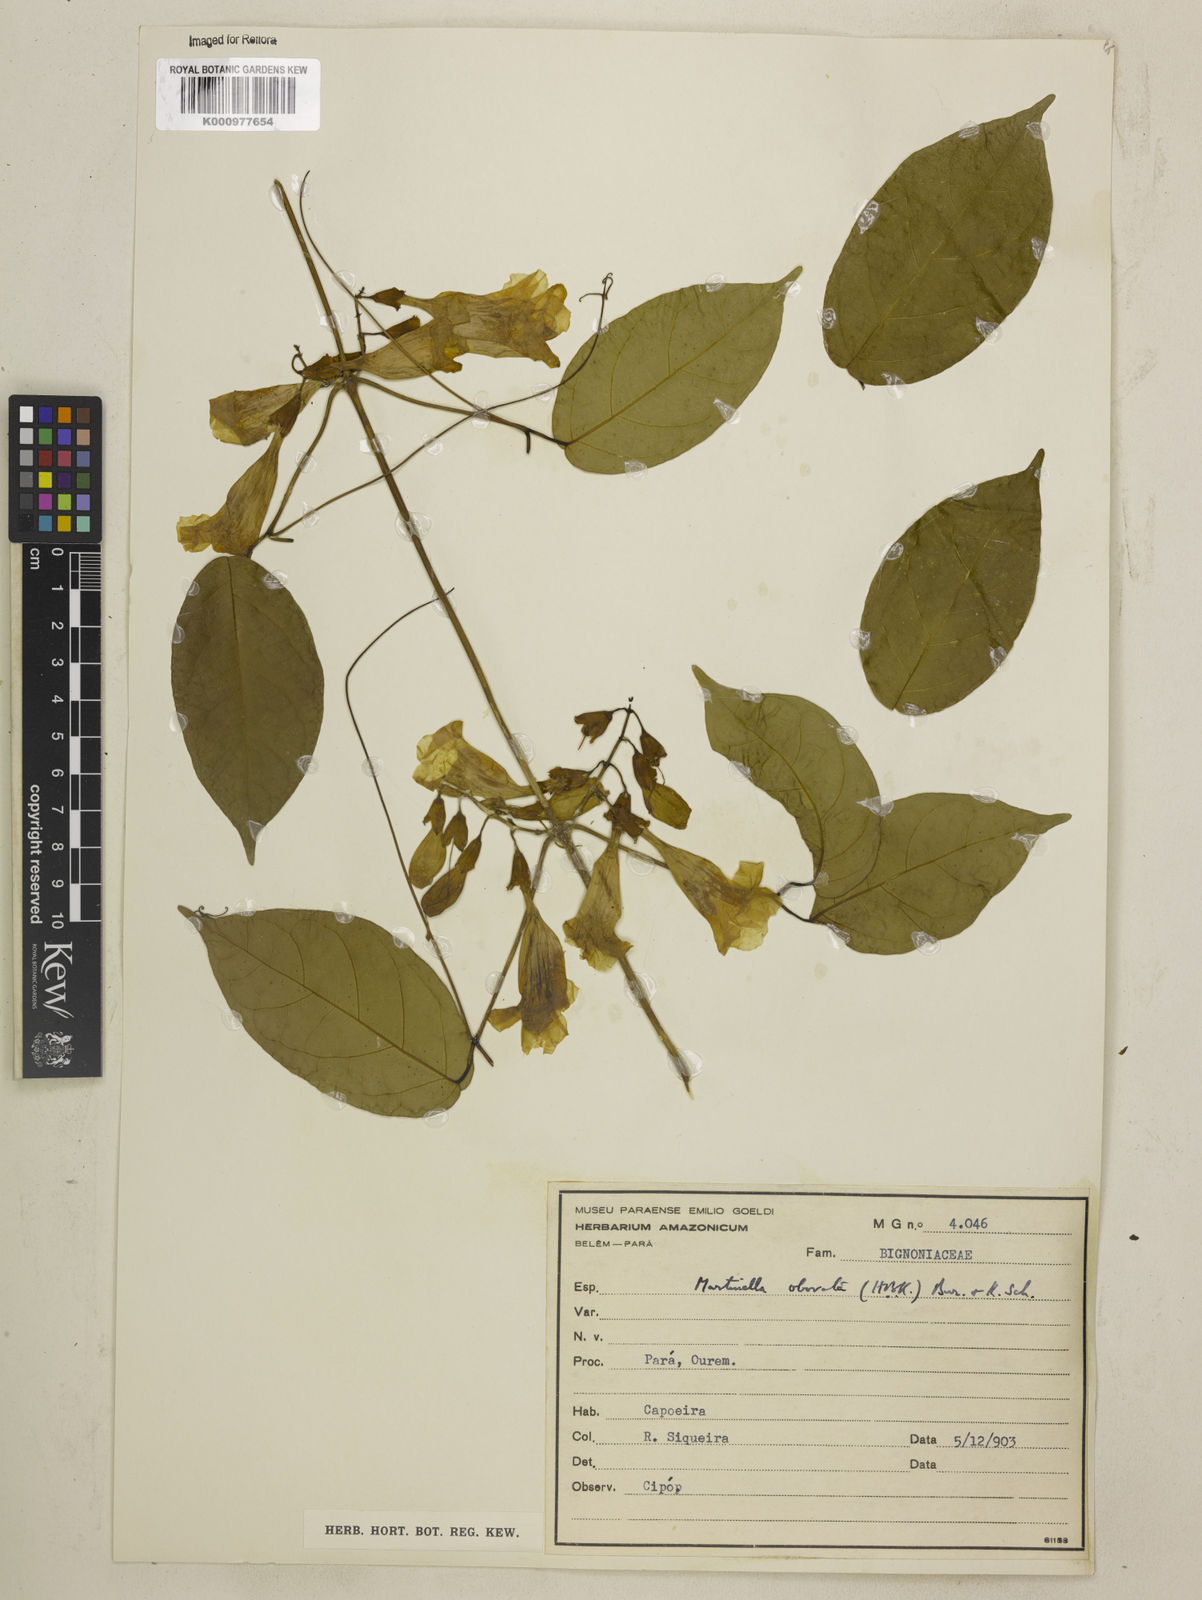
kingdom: Animalia
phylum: Arthropoda
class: Insecta
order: Coleoptera
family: Chrysomelidae
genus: Martinella
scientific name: Martinella obovata
